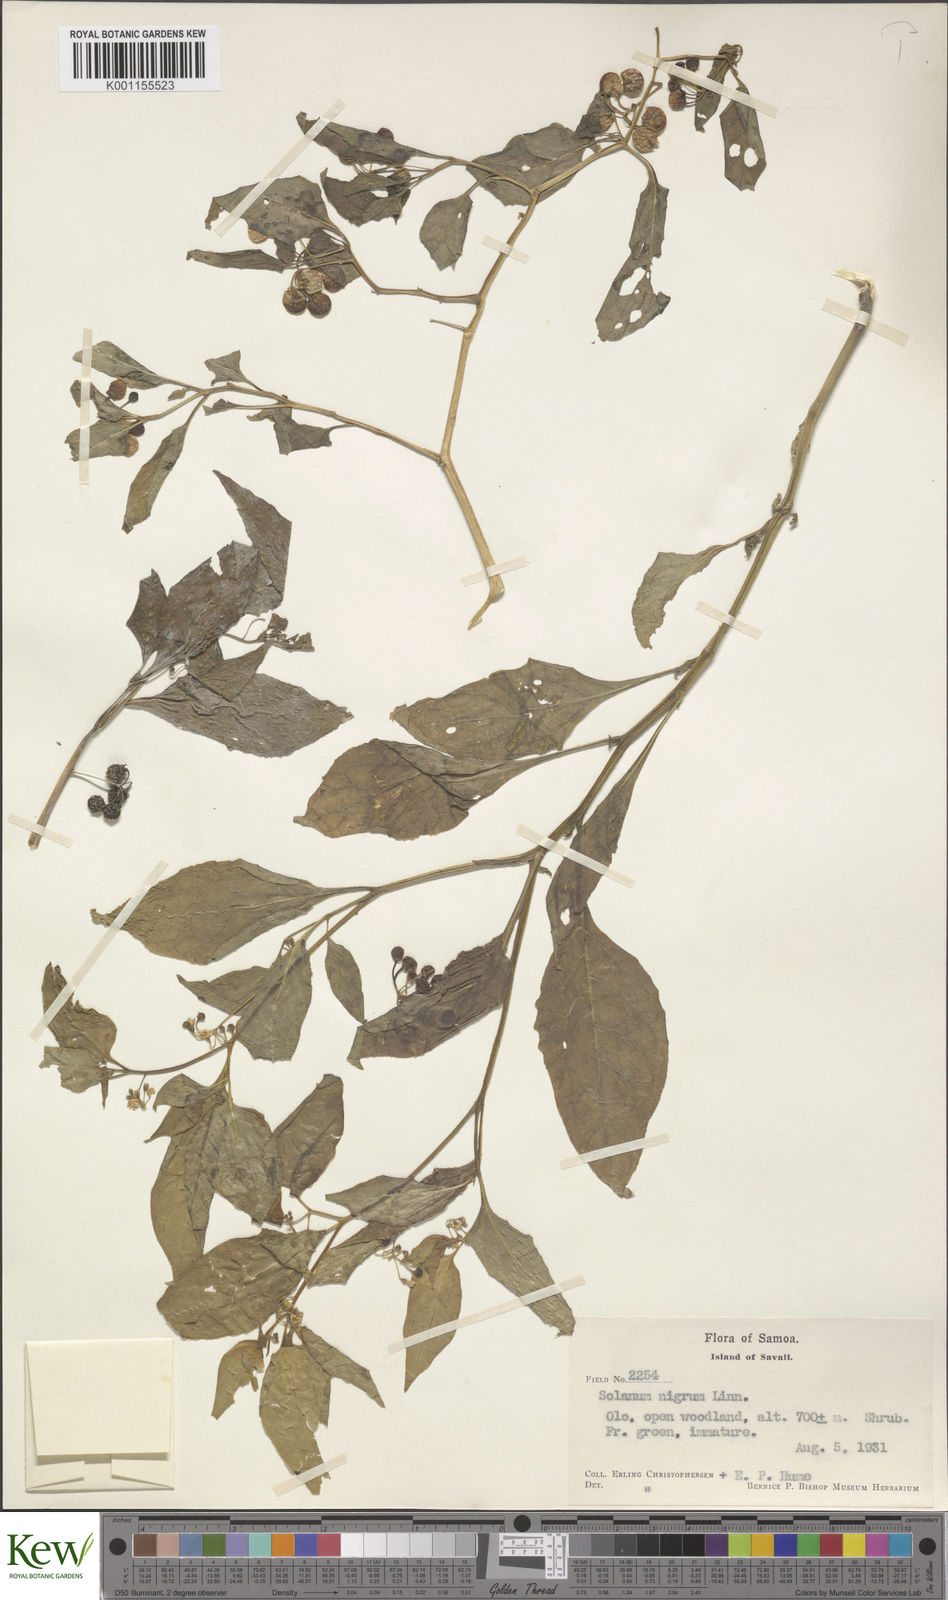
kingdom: Plantae
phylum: Tracheophyta
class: Magnoliopsida
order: Solanales
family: Solanaceae
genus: Solanum
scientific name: Solanum americanum
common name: American black nightshade
